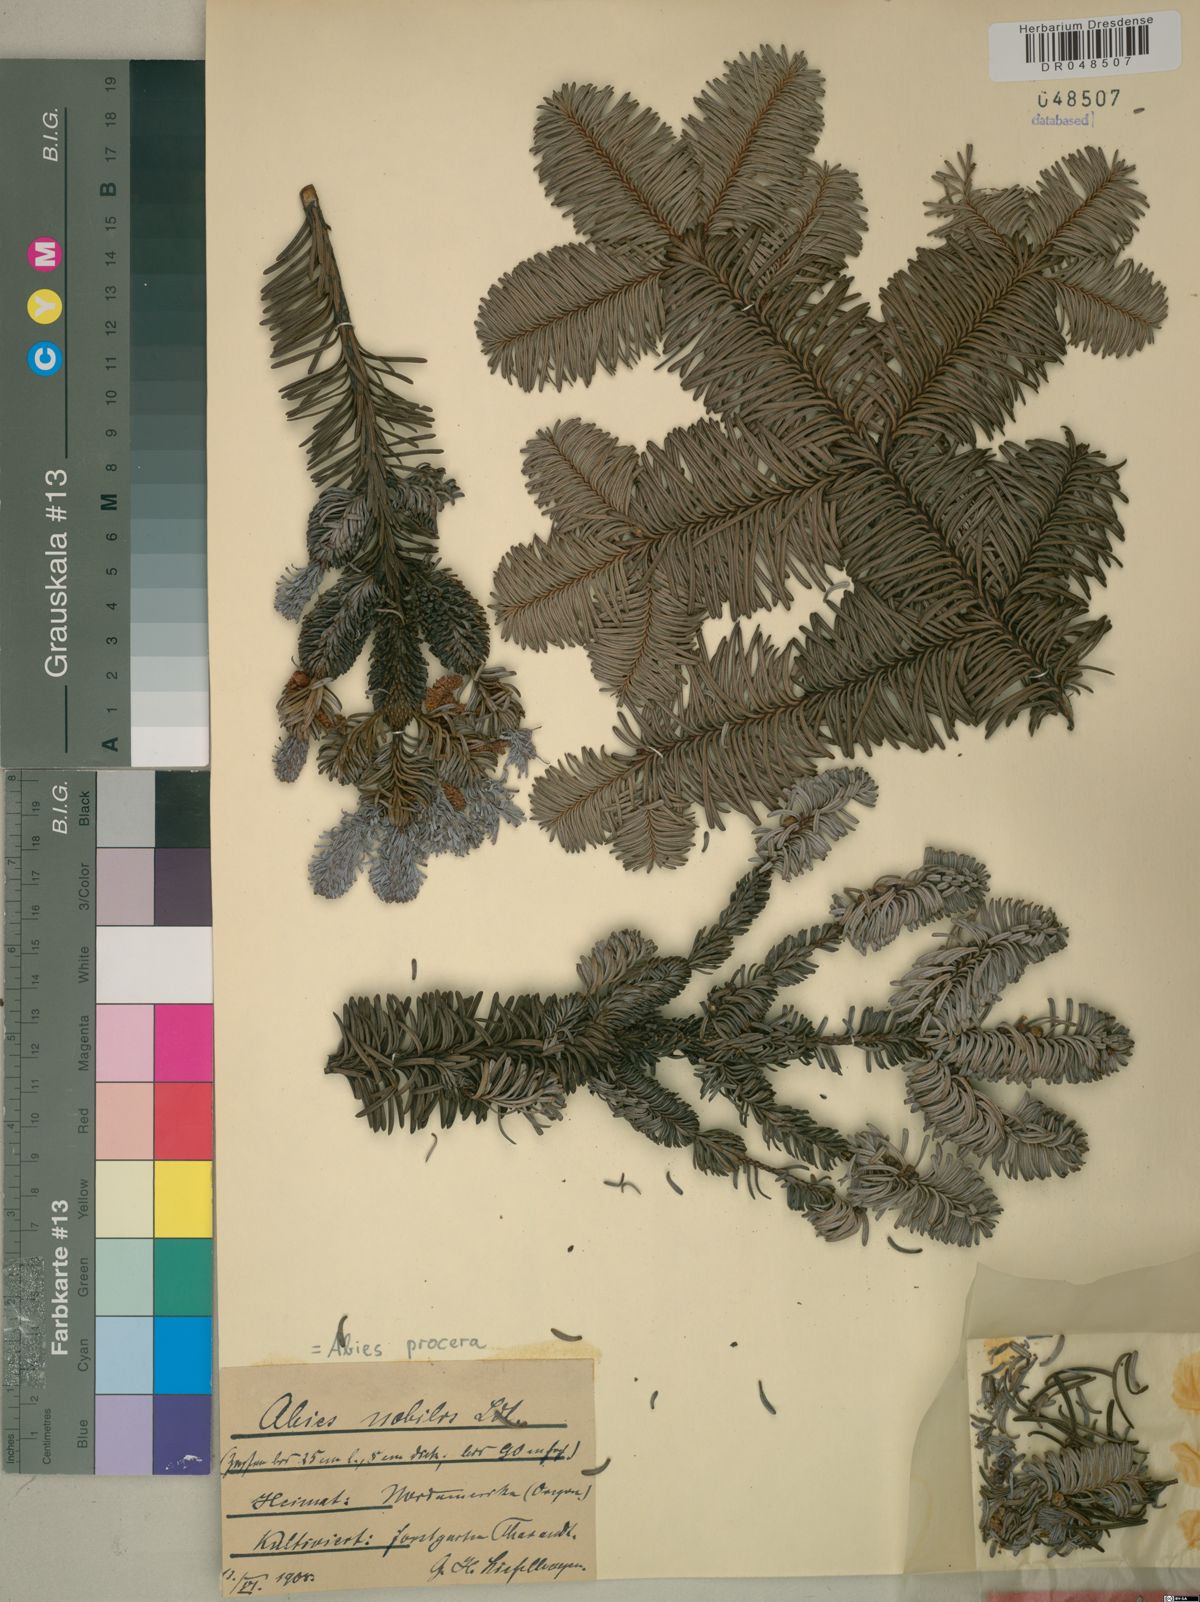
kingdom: Plantae
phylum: Tracheophyta
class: Pinopsida
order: Pinales
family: Pinaceae
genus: Abies
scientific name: Abies procera
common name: Noble fir
